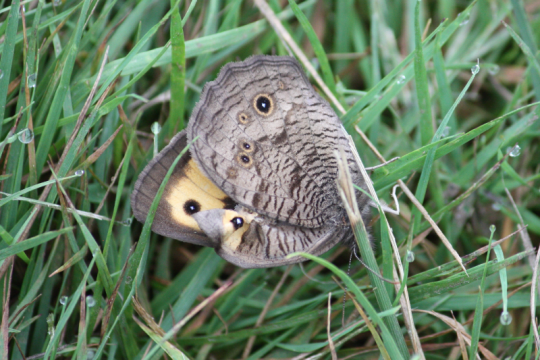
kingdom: Animalia
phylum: Arthropoda
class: Insecta
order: Lepidoptera
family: Nymphalidae
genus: Cercyonis
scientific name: Cercyonis pegala
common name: Common Wood-Nymph
